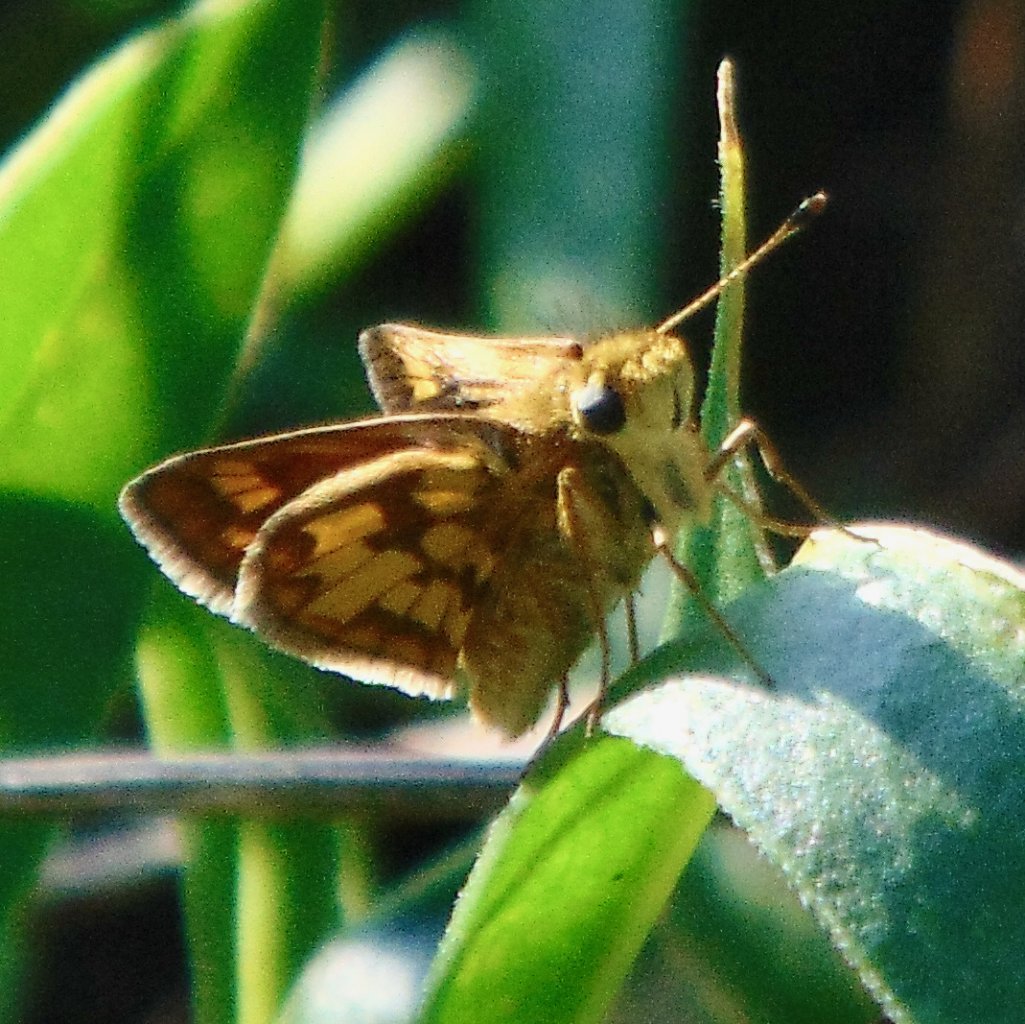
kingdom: Animalia
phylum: Arthropoda
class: Insecta
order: Lepidoptera
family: Hesperiidae
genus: Polites
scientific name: Polites coras
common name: Peck's Skipper
